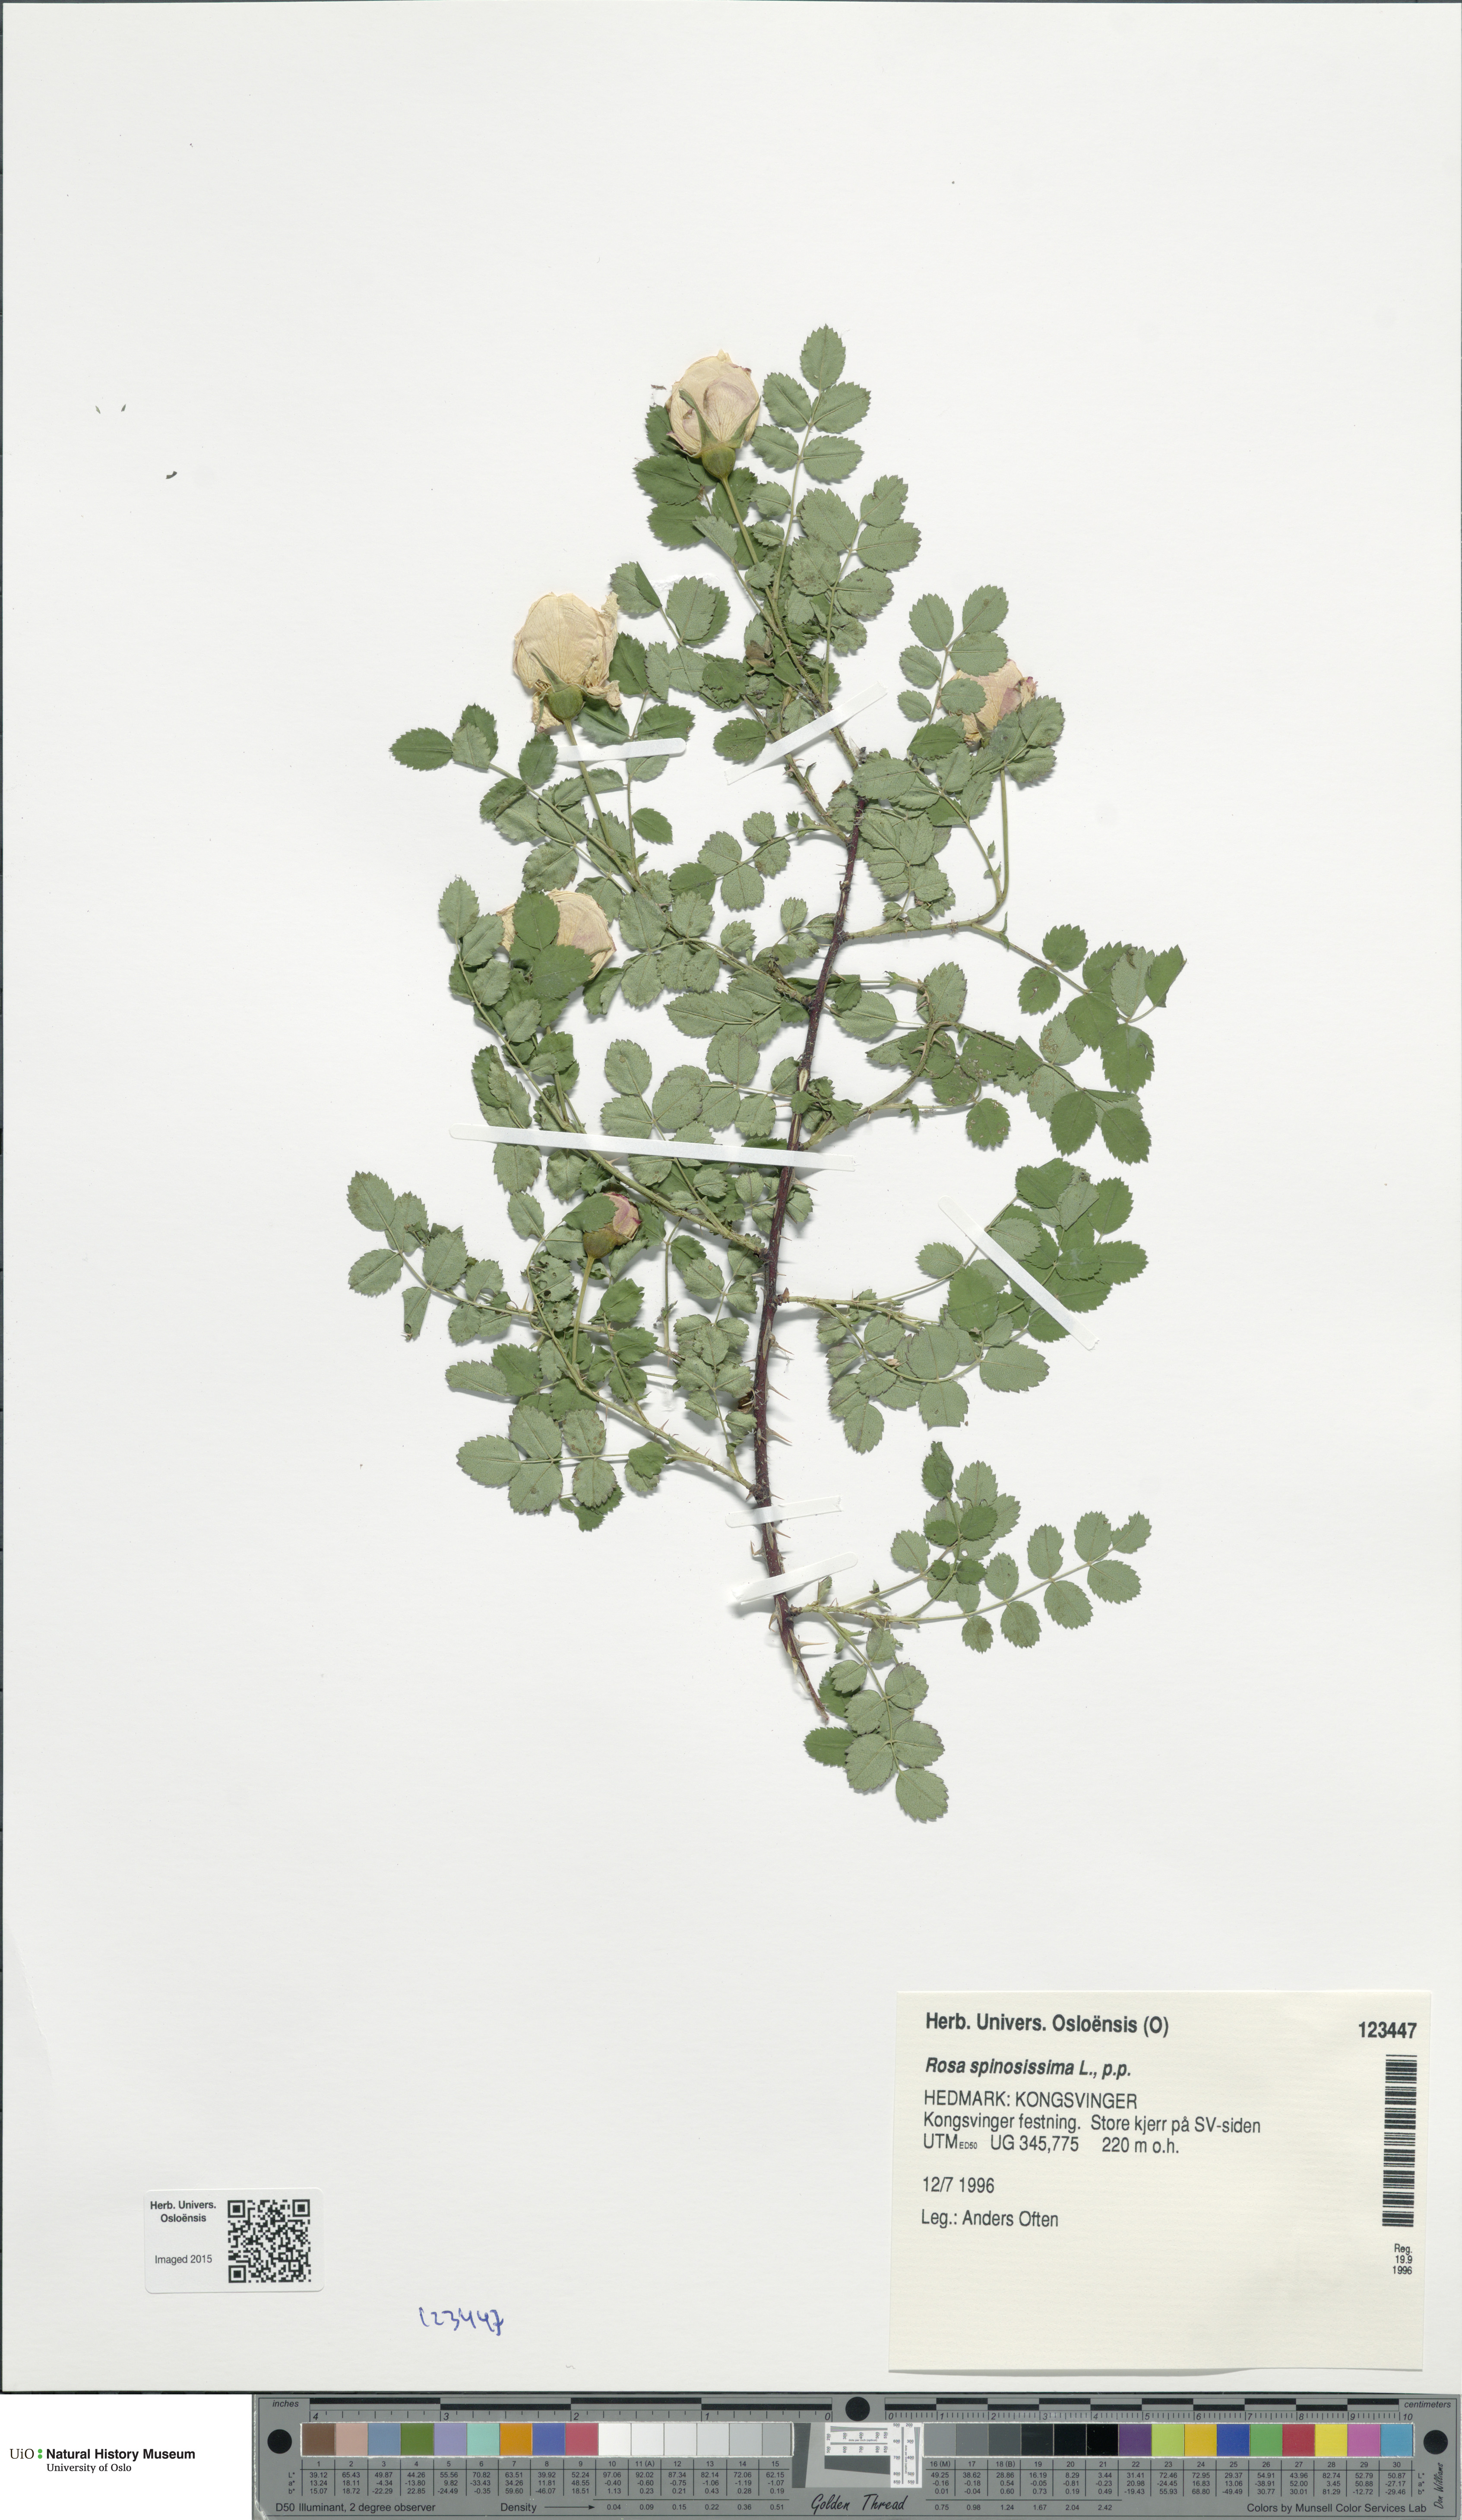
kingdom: Plantae
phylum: Tracheophyta
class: Magnoliopsida
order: Rosales
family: Rosaceae
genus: Rosa
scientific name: Rosa spinosissima
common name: Burnet rose
